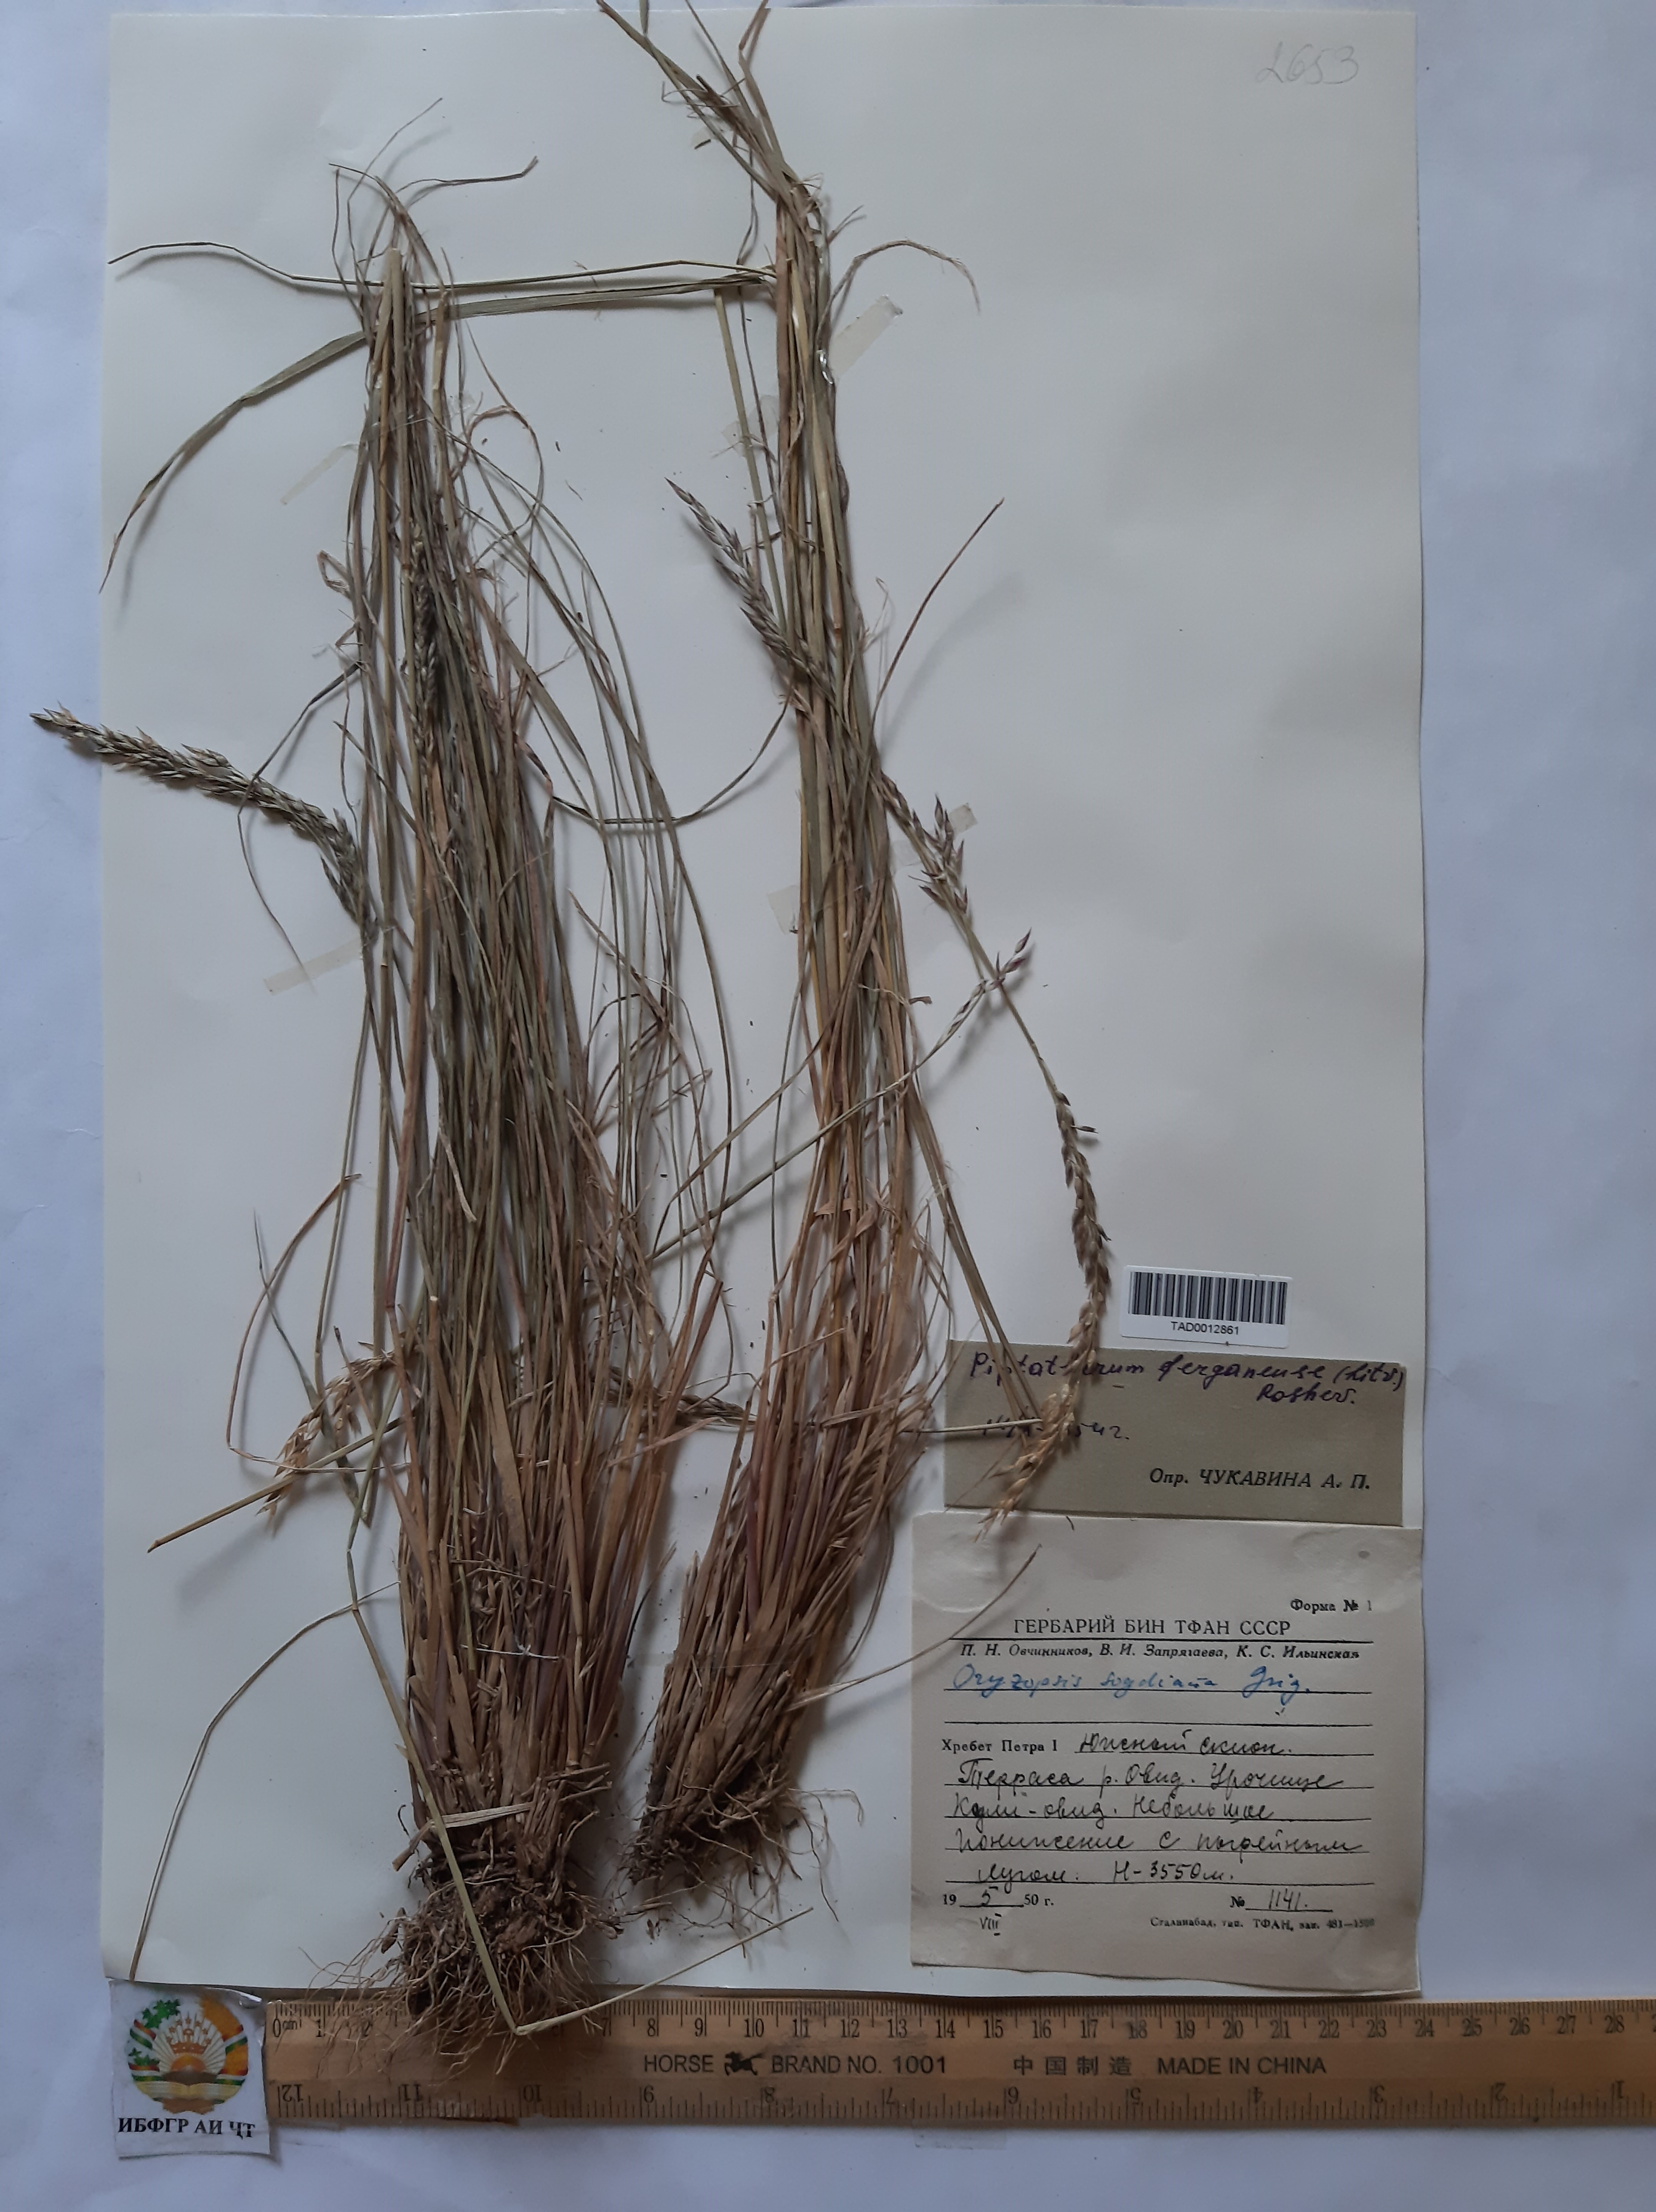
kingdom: Plantae
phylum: Tracheophyta
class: Liliopsida
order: Poales
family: Poaceae
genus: Piptatherum
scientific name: Piptatherum ferganense
